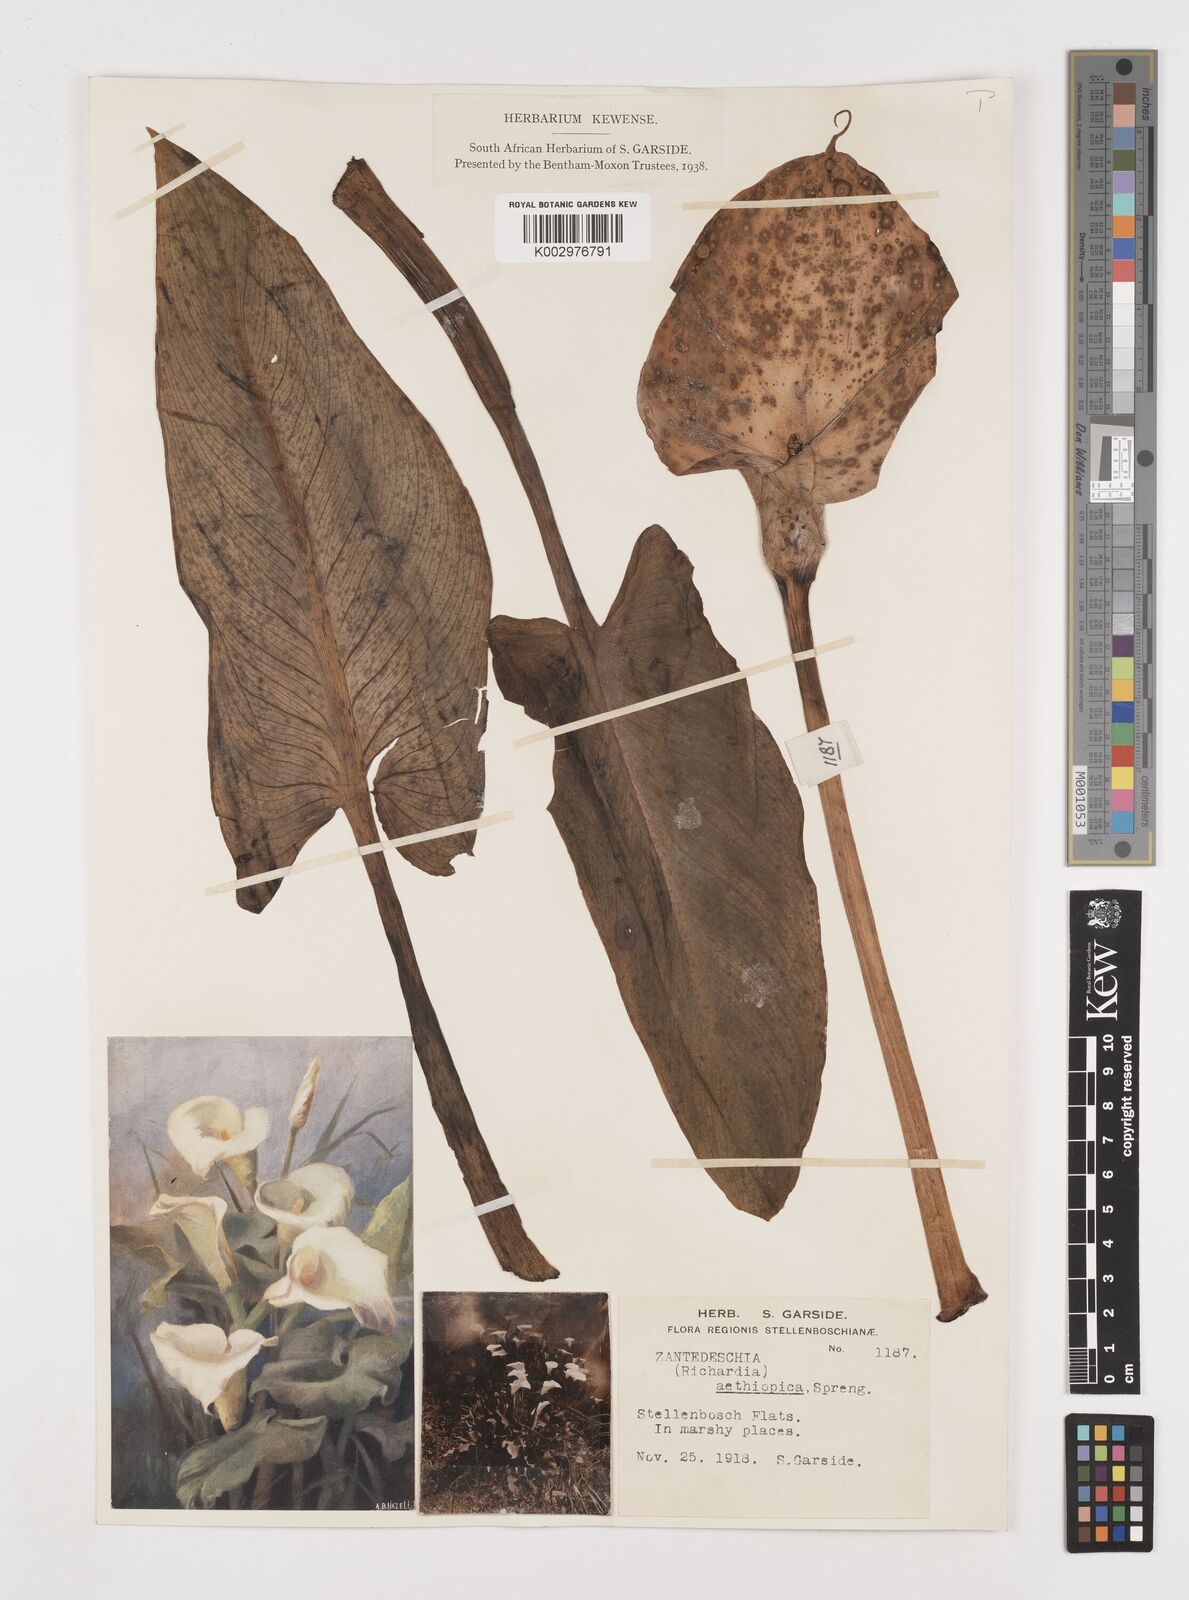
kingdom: Plantae
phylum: Tracheophyta
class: Liliopsida
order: Alismatales
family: Araceae
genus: Zantedeschia
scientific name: Zantedeschia aethiopica
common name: Altar-lily
